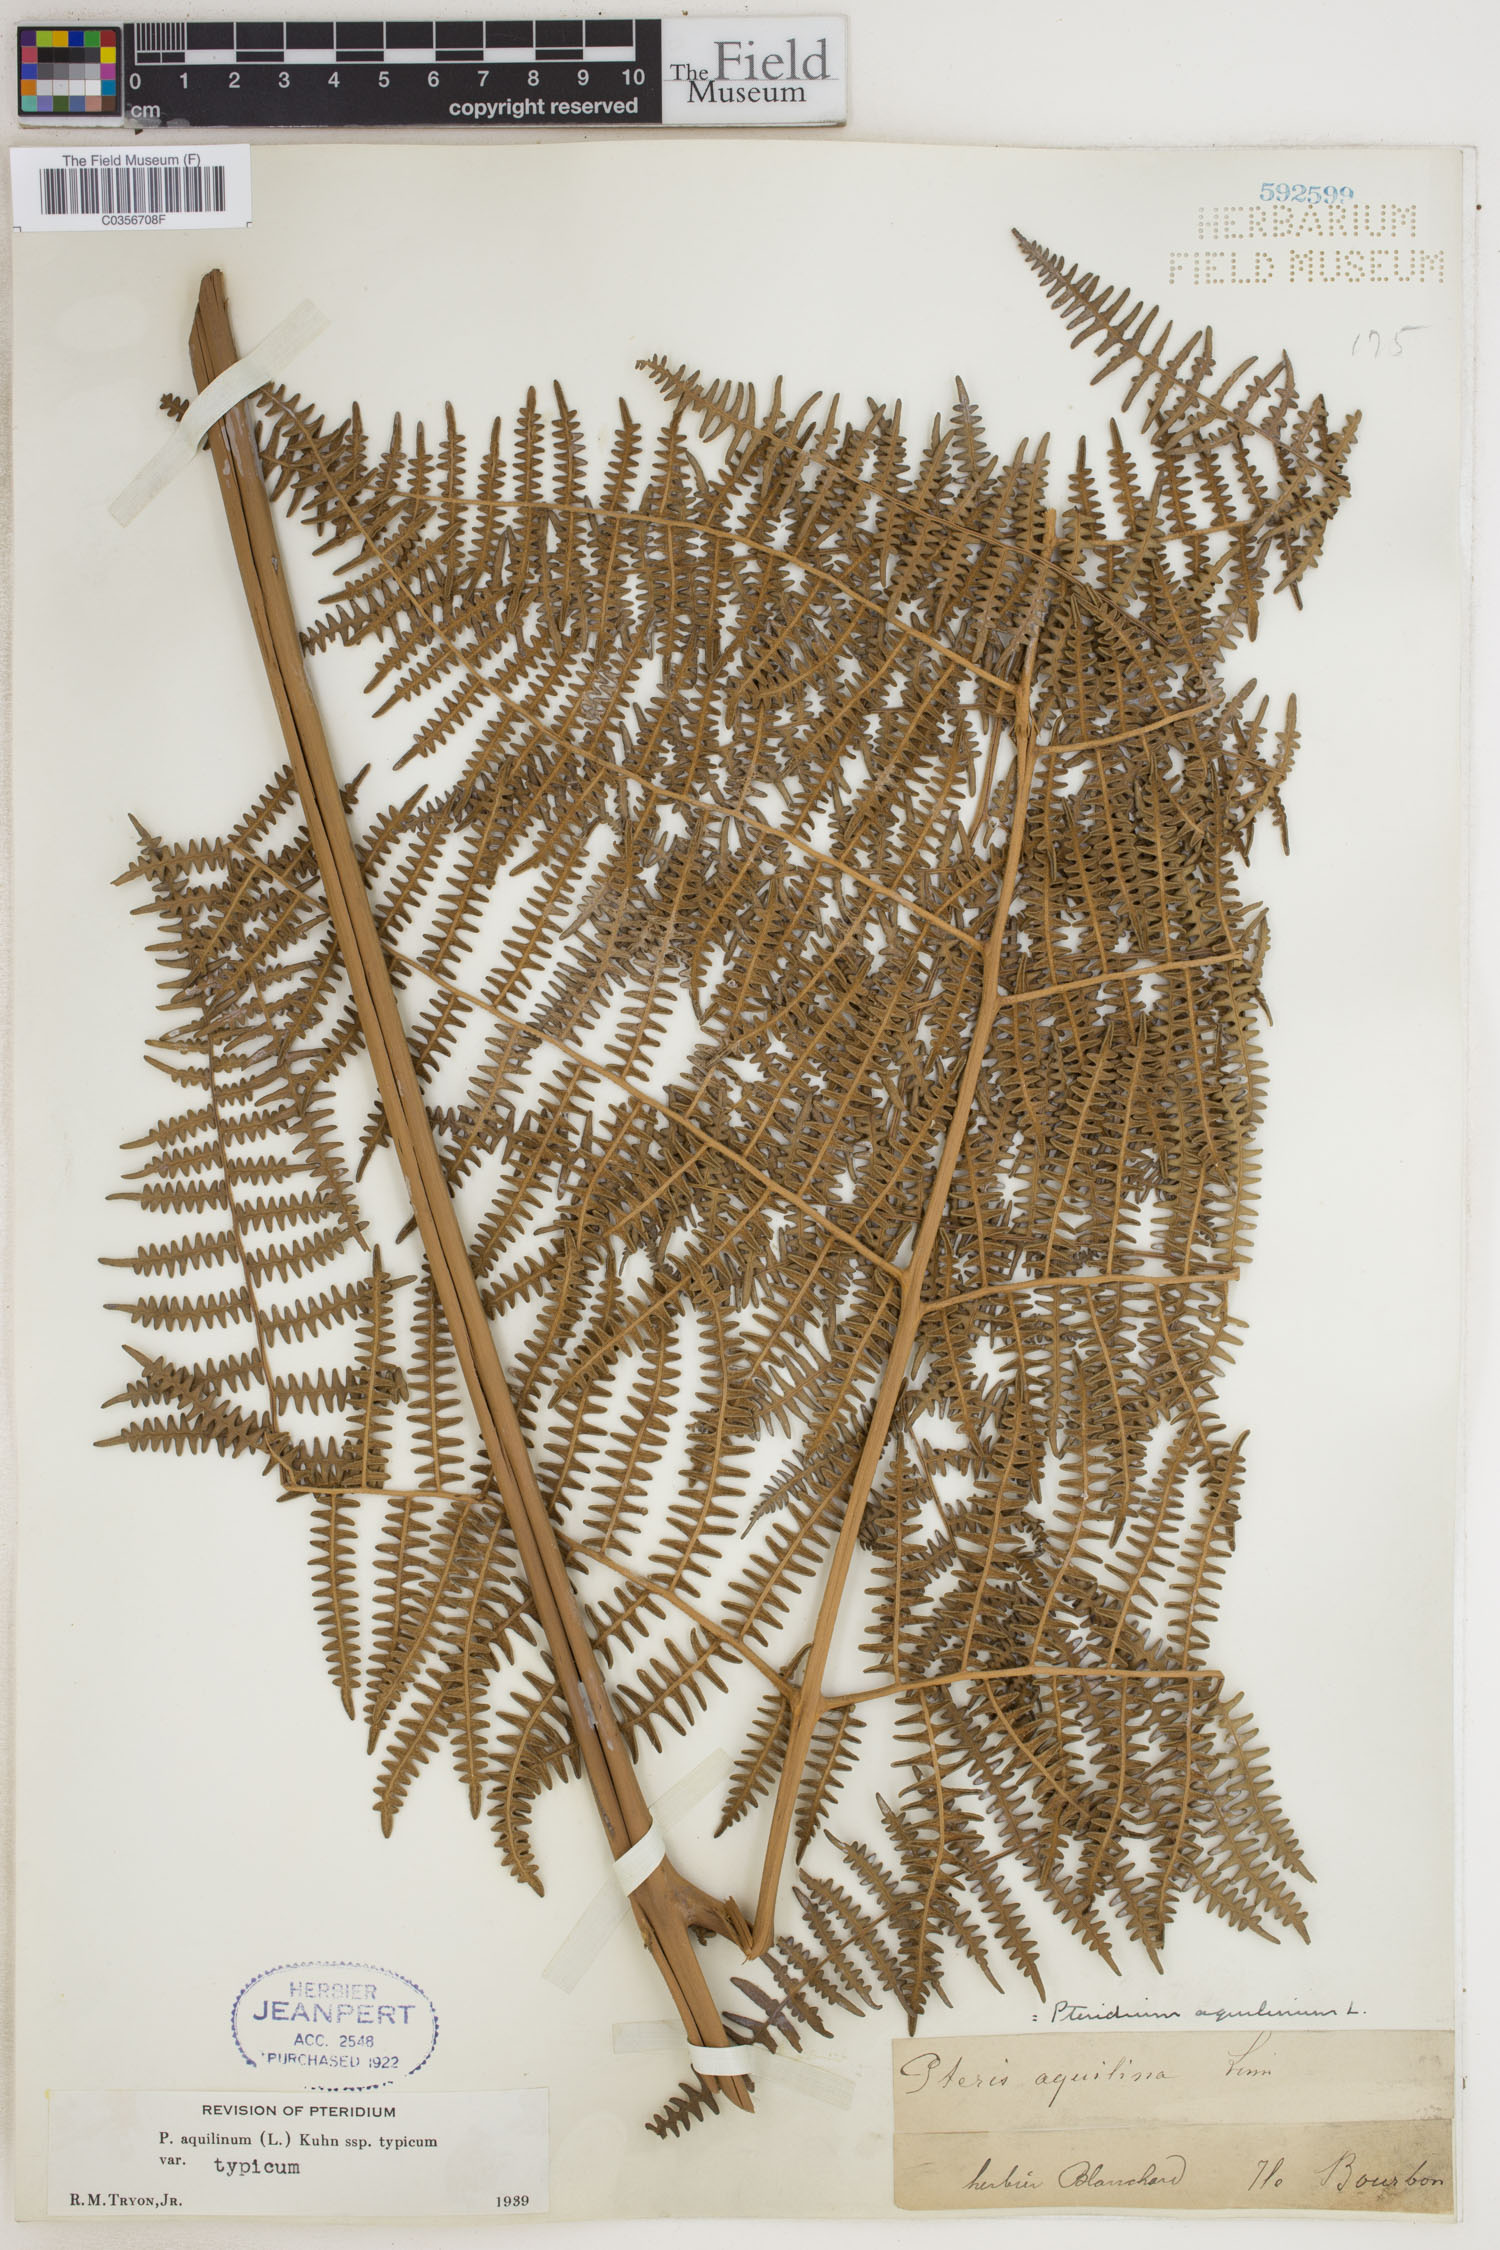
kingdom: Plantae
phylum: Tracheophyta
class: Polypodiopsida
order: Polypodiales
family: Dennstaedtiaceae
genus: Pteridium
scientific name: Pteridium aquilinum
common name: Bracken
